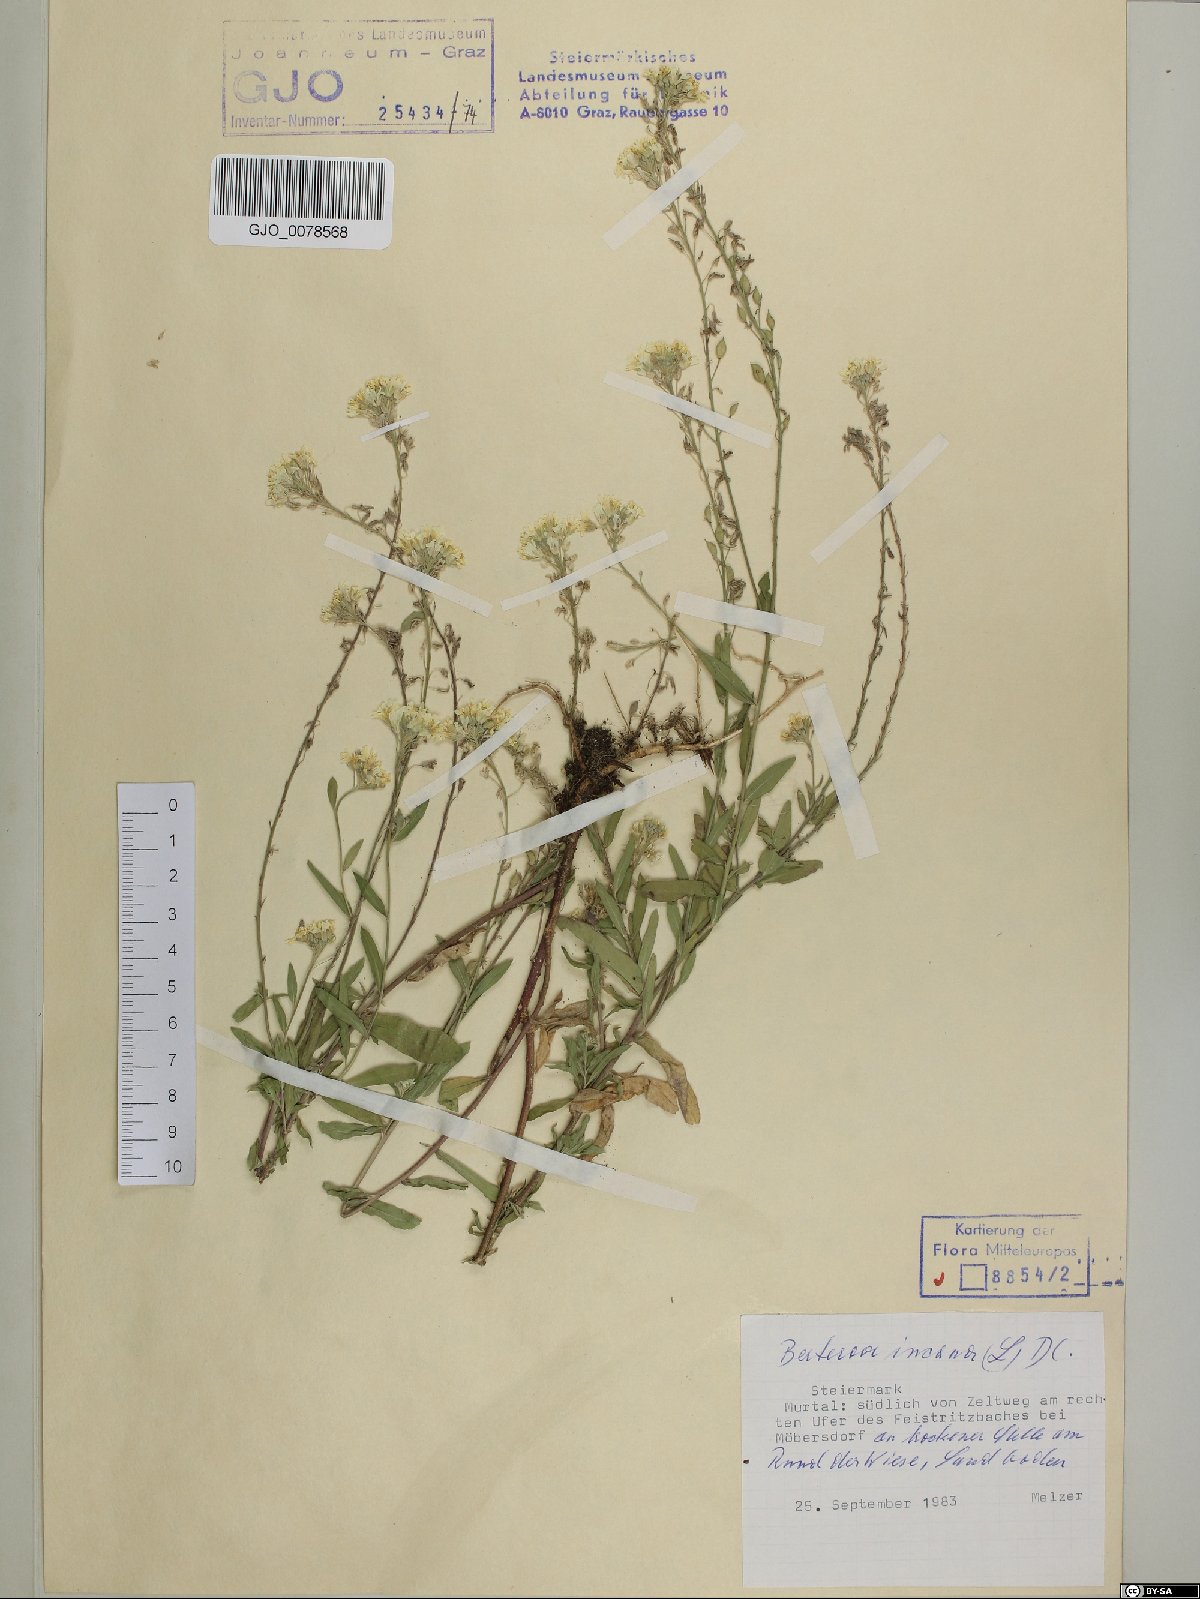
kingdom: Plantae
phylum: Tracheophyta
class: Magnoliopsida
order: Brassicales
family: Brassicaceae
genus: Berteroa
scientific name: Berteroa incana
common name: Hoary alison
